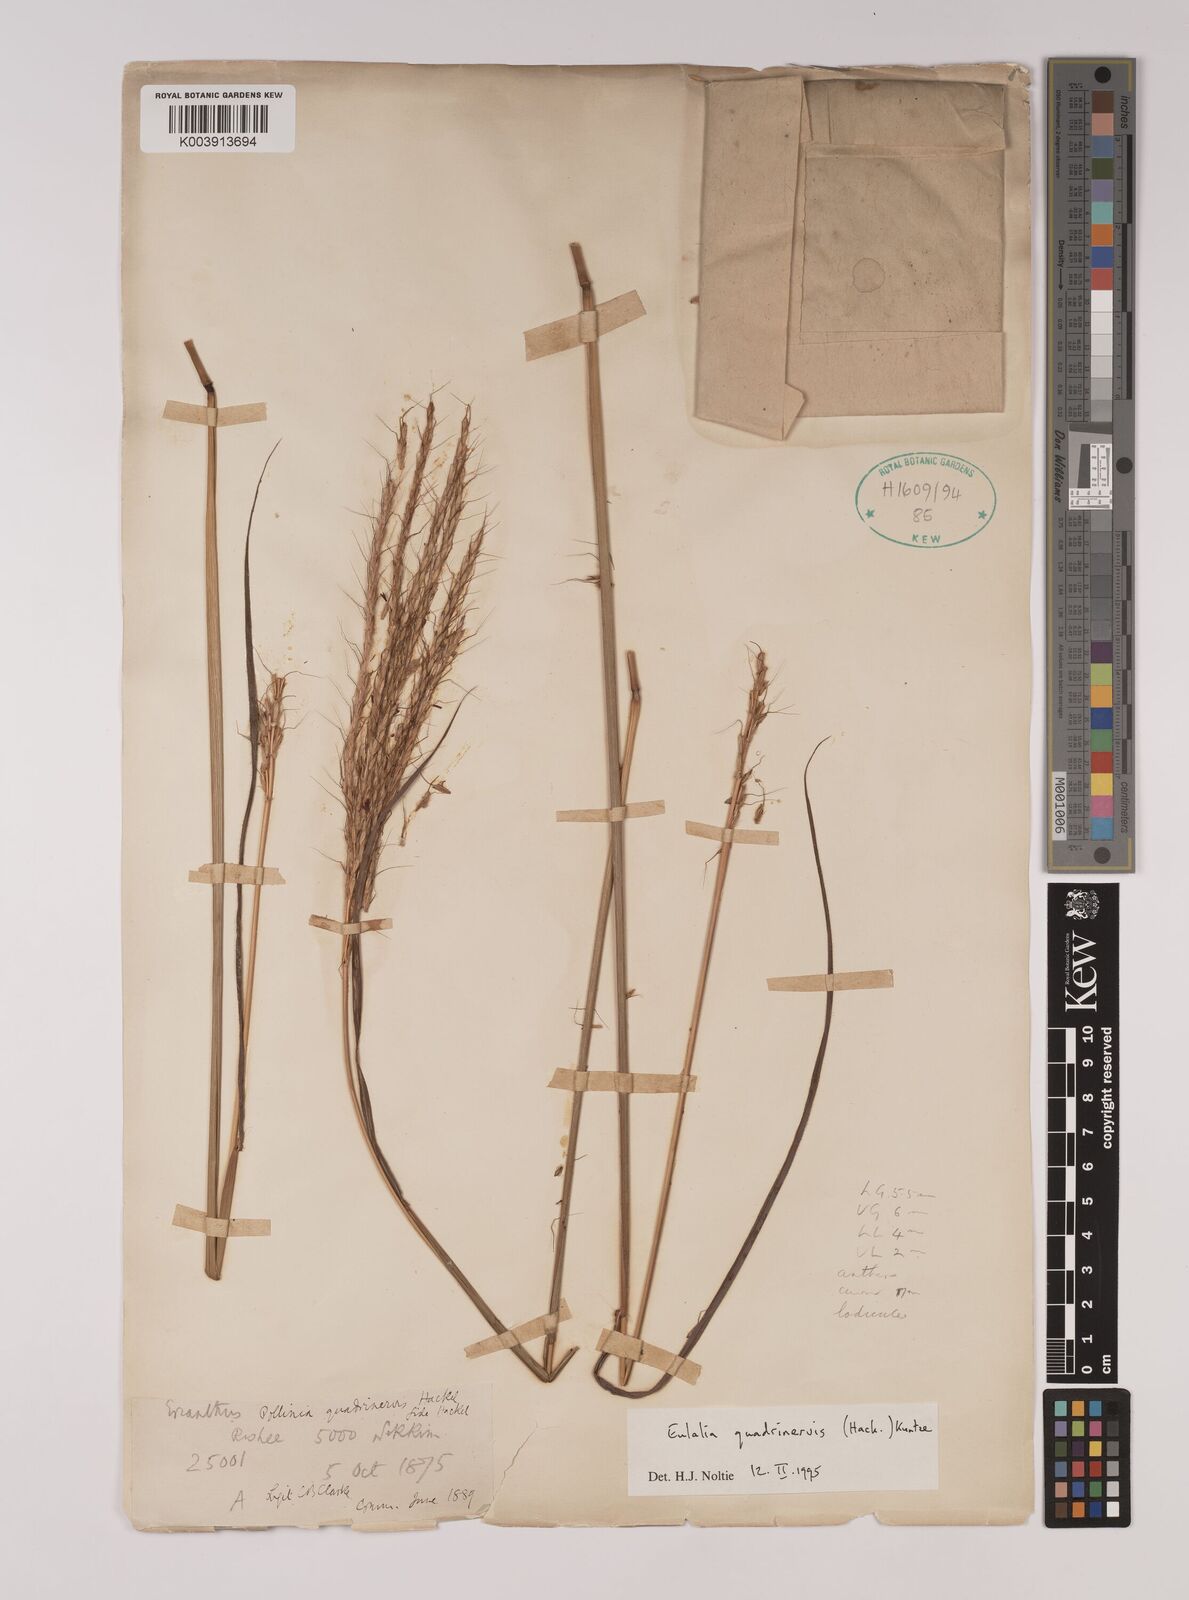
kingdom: Plantae
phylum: Tracheophyta
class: Liliopsida
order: Poales
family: Poaceae
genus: Pseudopogonatherum
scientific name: Pseudopogonatherum quadrinerve
